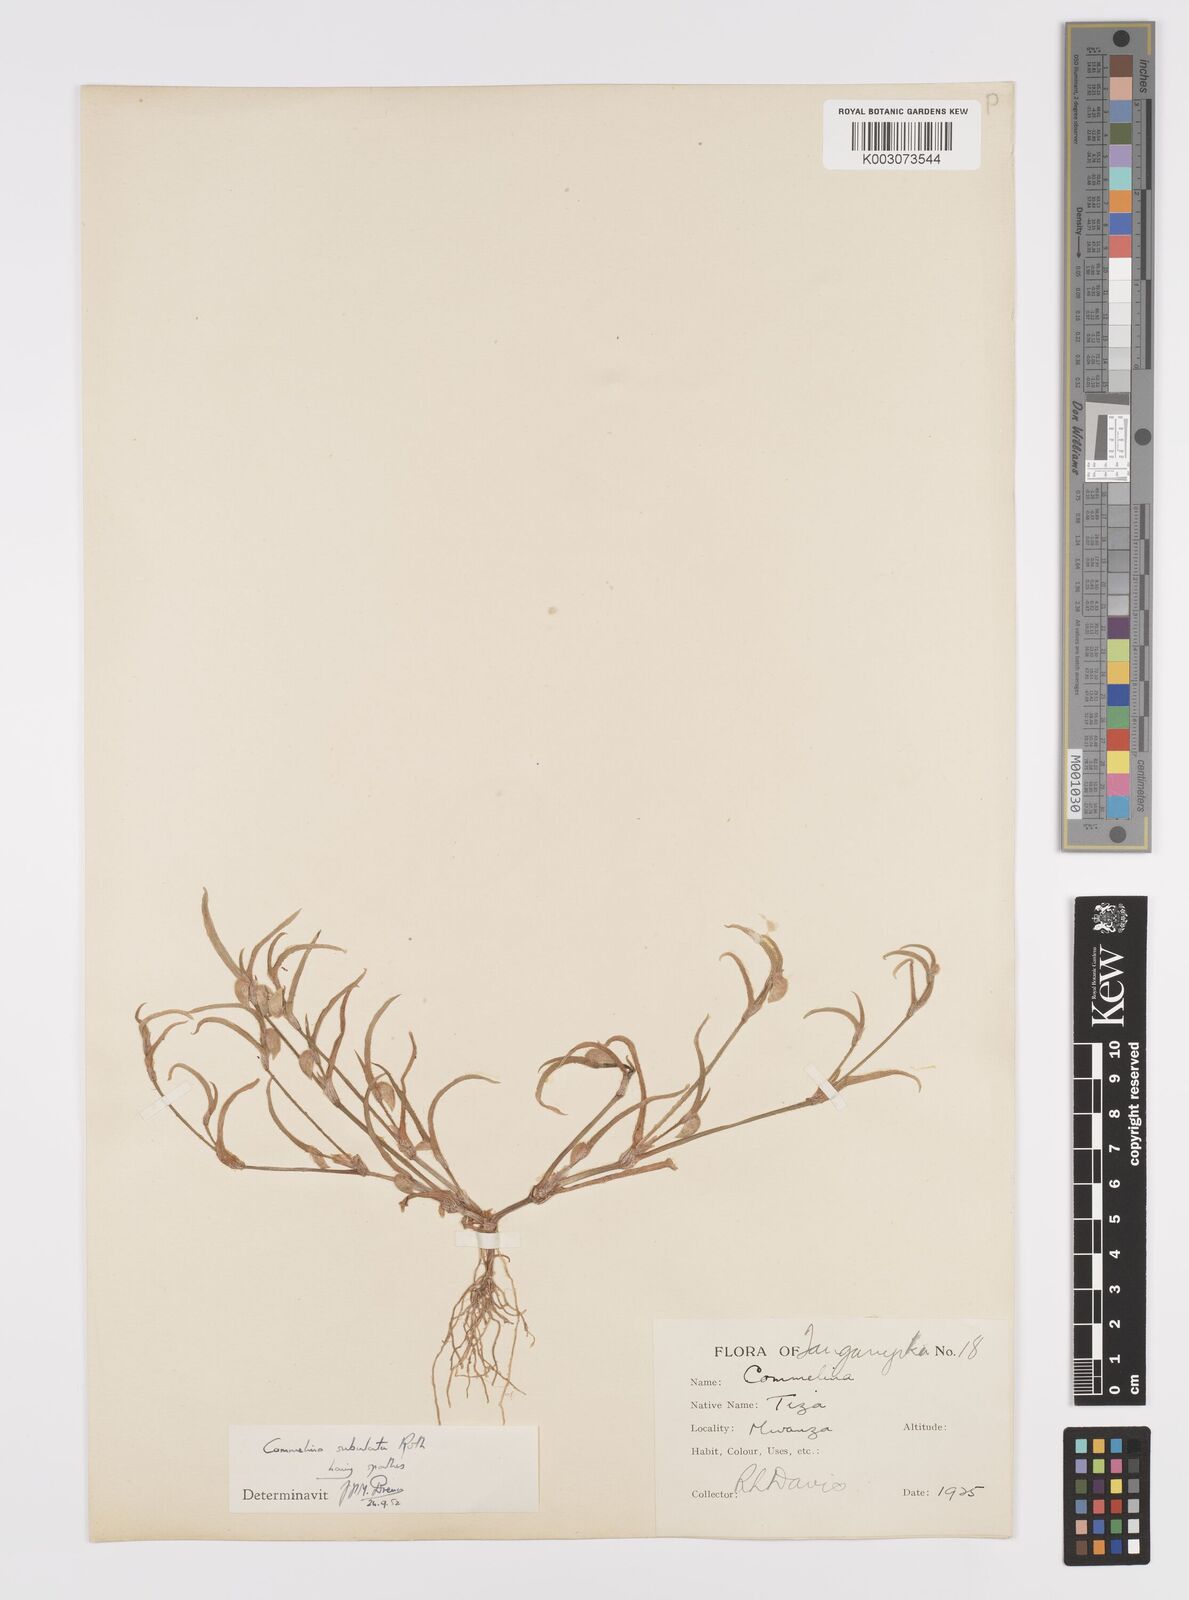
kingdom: Plantae
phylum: Tracheophyta
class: Liliopsida
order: Commelinales
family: Commelinaceae
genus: Commelina
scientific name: Commelina subulata
